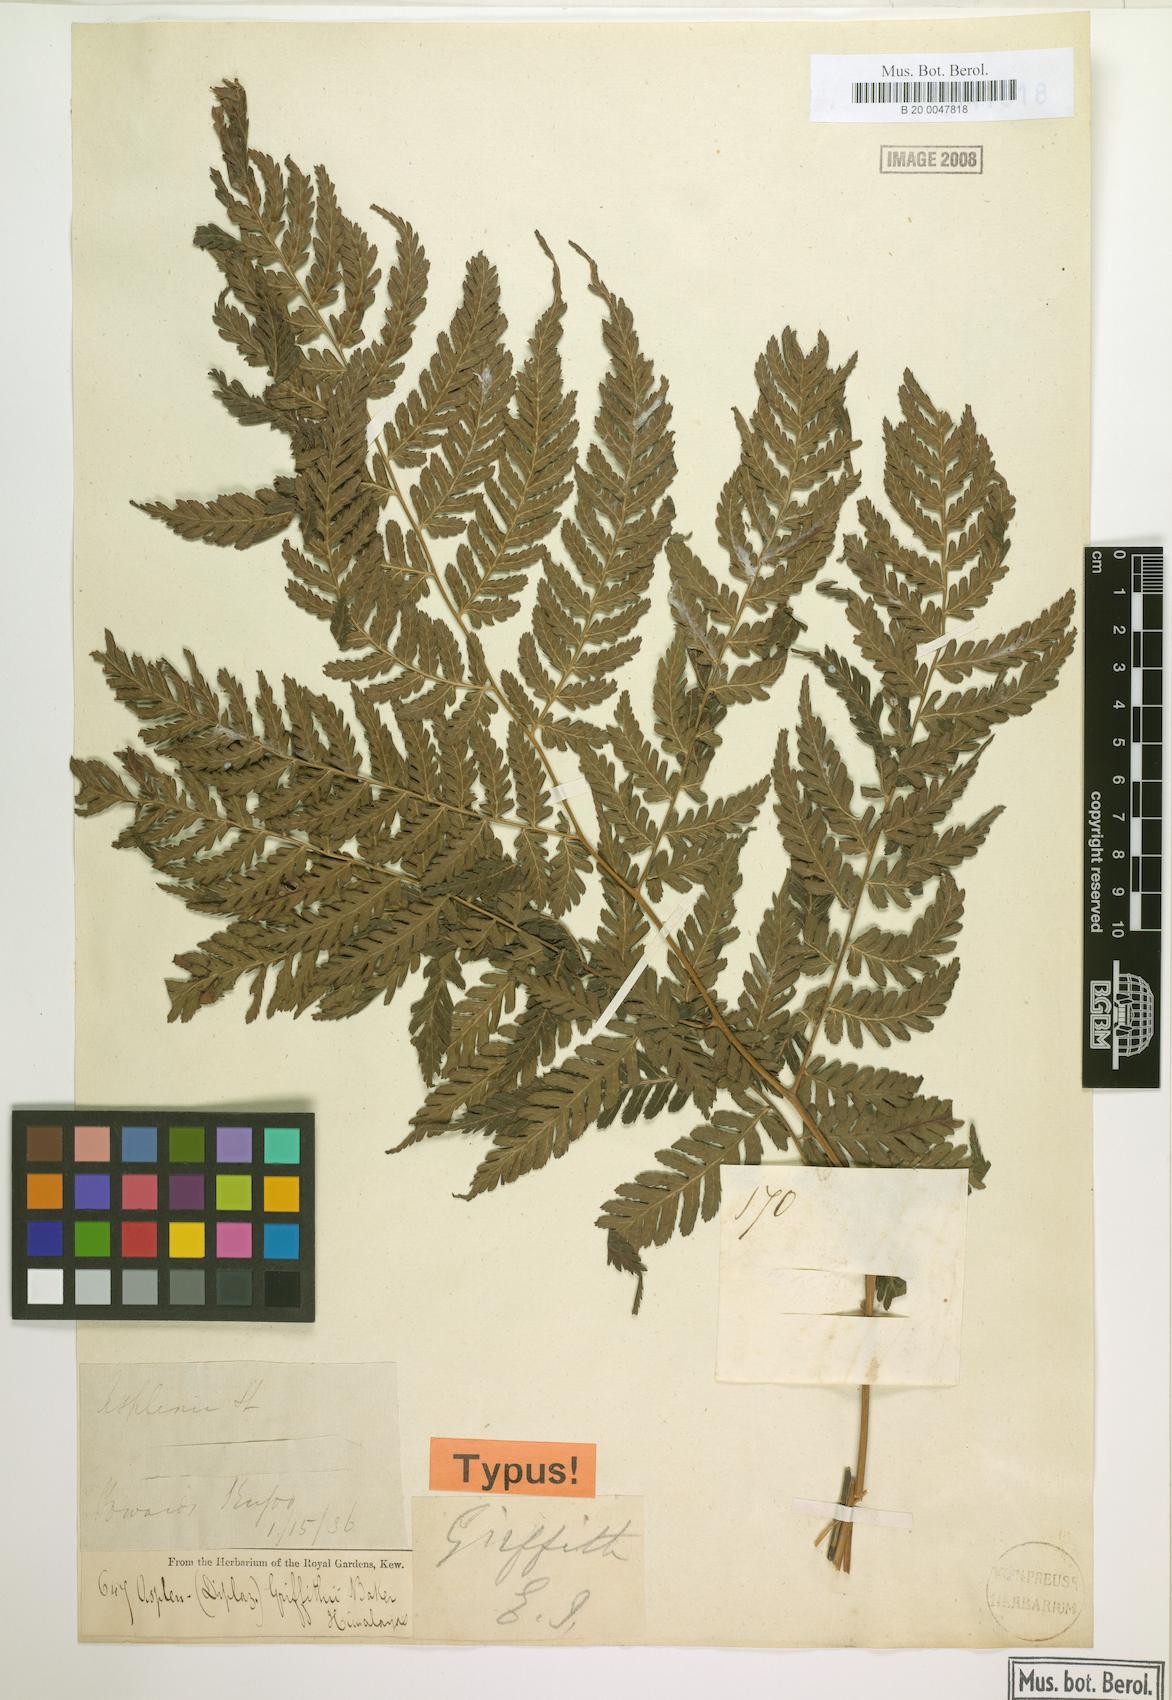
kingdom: Plantae
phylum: Tracheophyta
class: Polypodiopsida
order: Polypodiales
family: Athyriaceae
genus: Diplazium
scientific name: Diplazium griffithii
